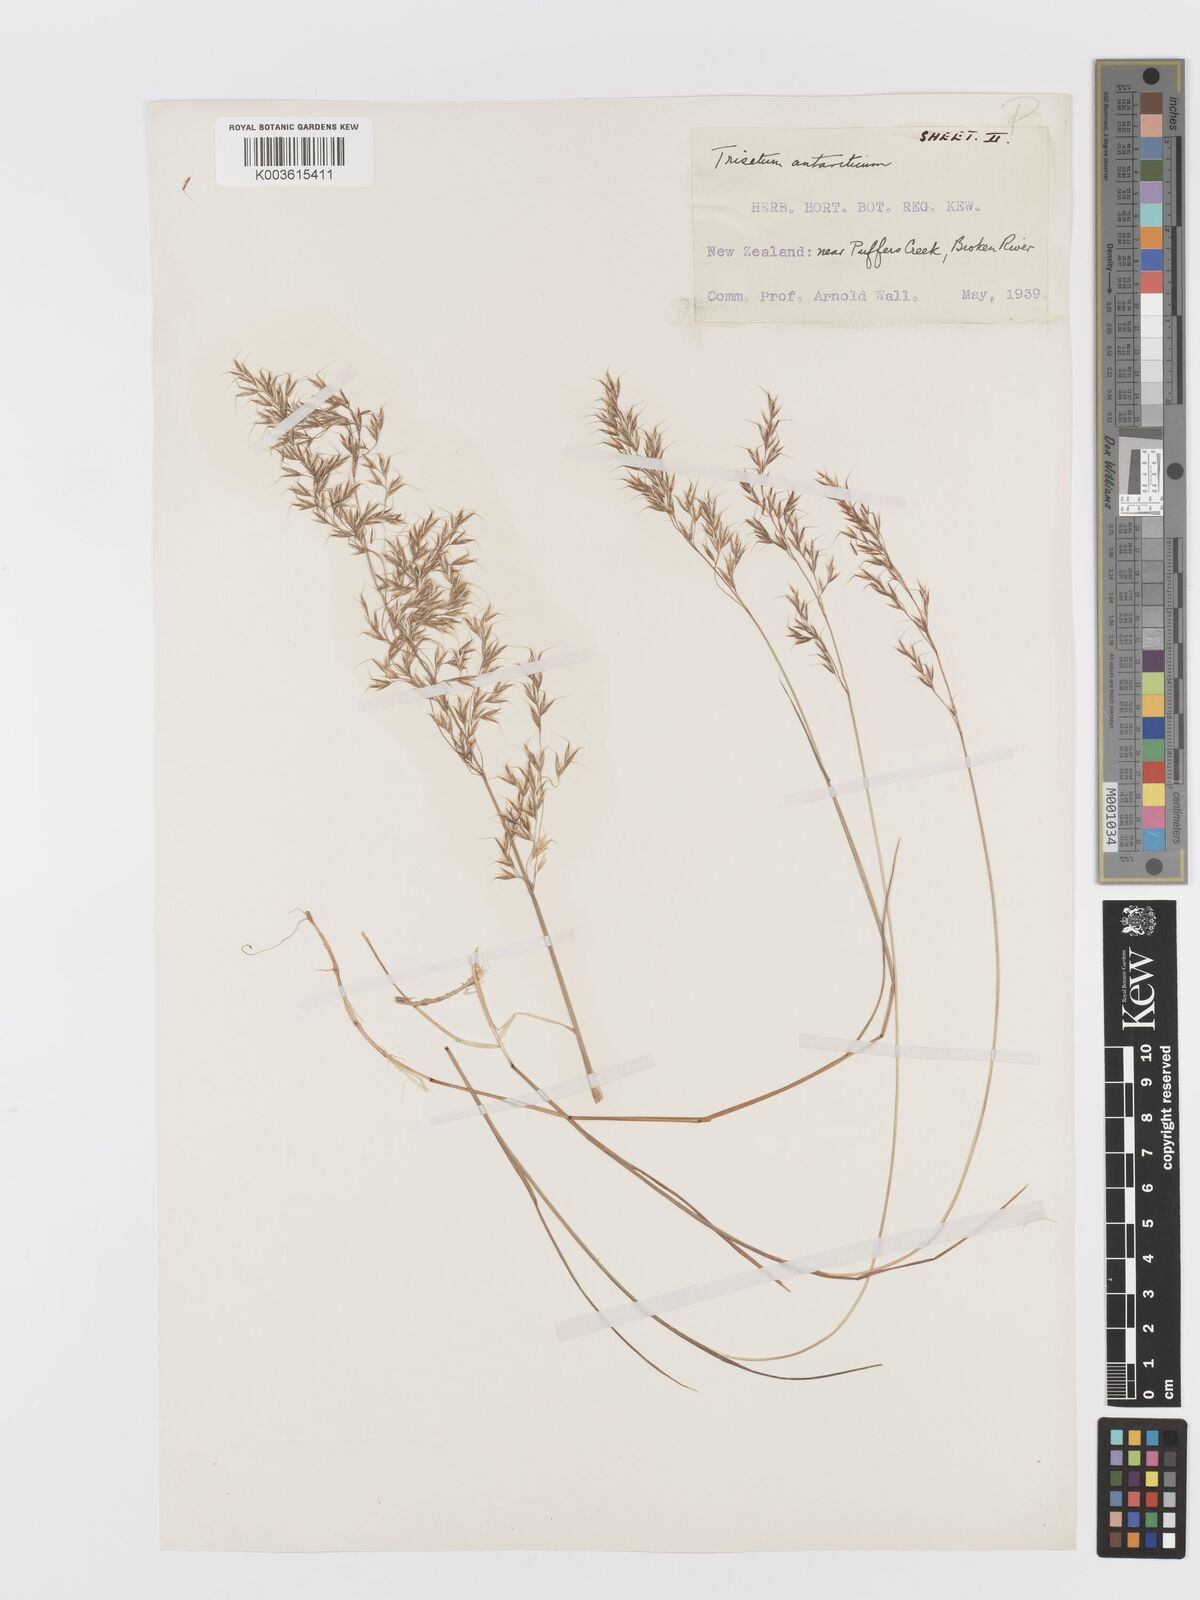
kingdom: Plantae
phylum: Tracheophyta
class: Liliopsida
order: Poales
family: Poaceae
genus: Koeleria
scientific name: Koeleria antarctica
